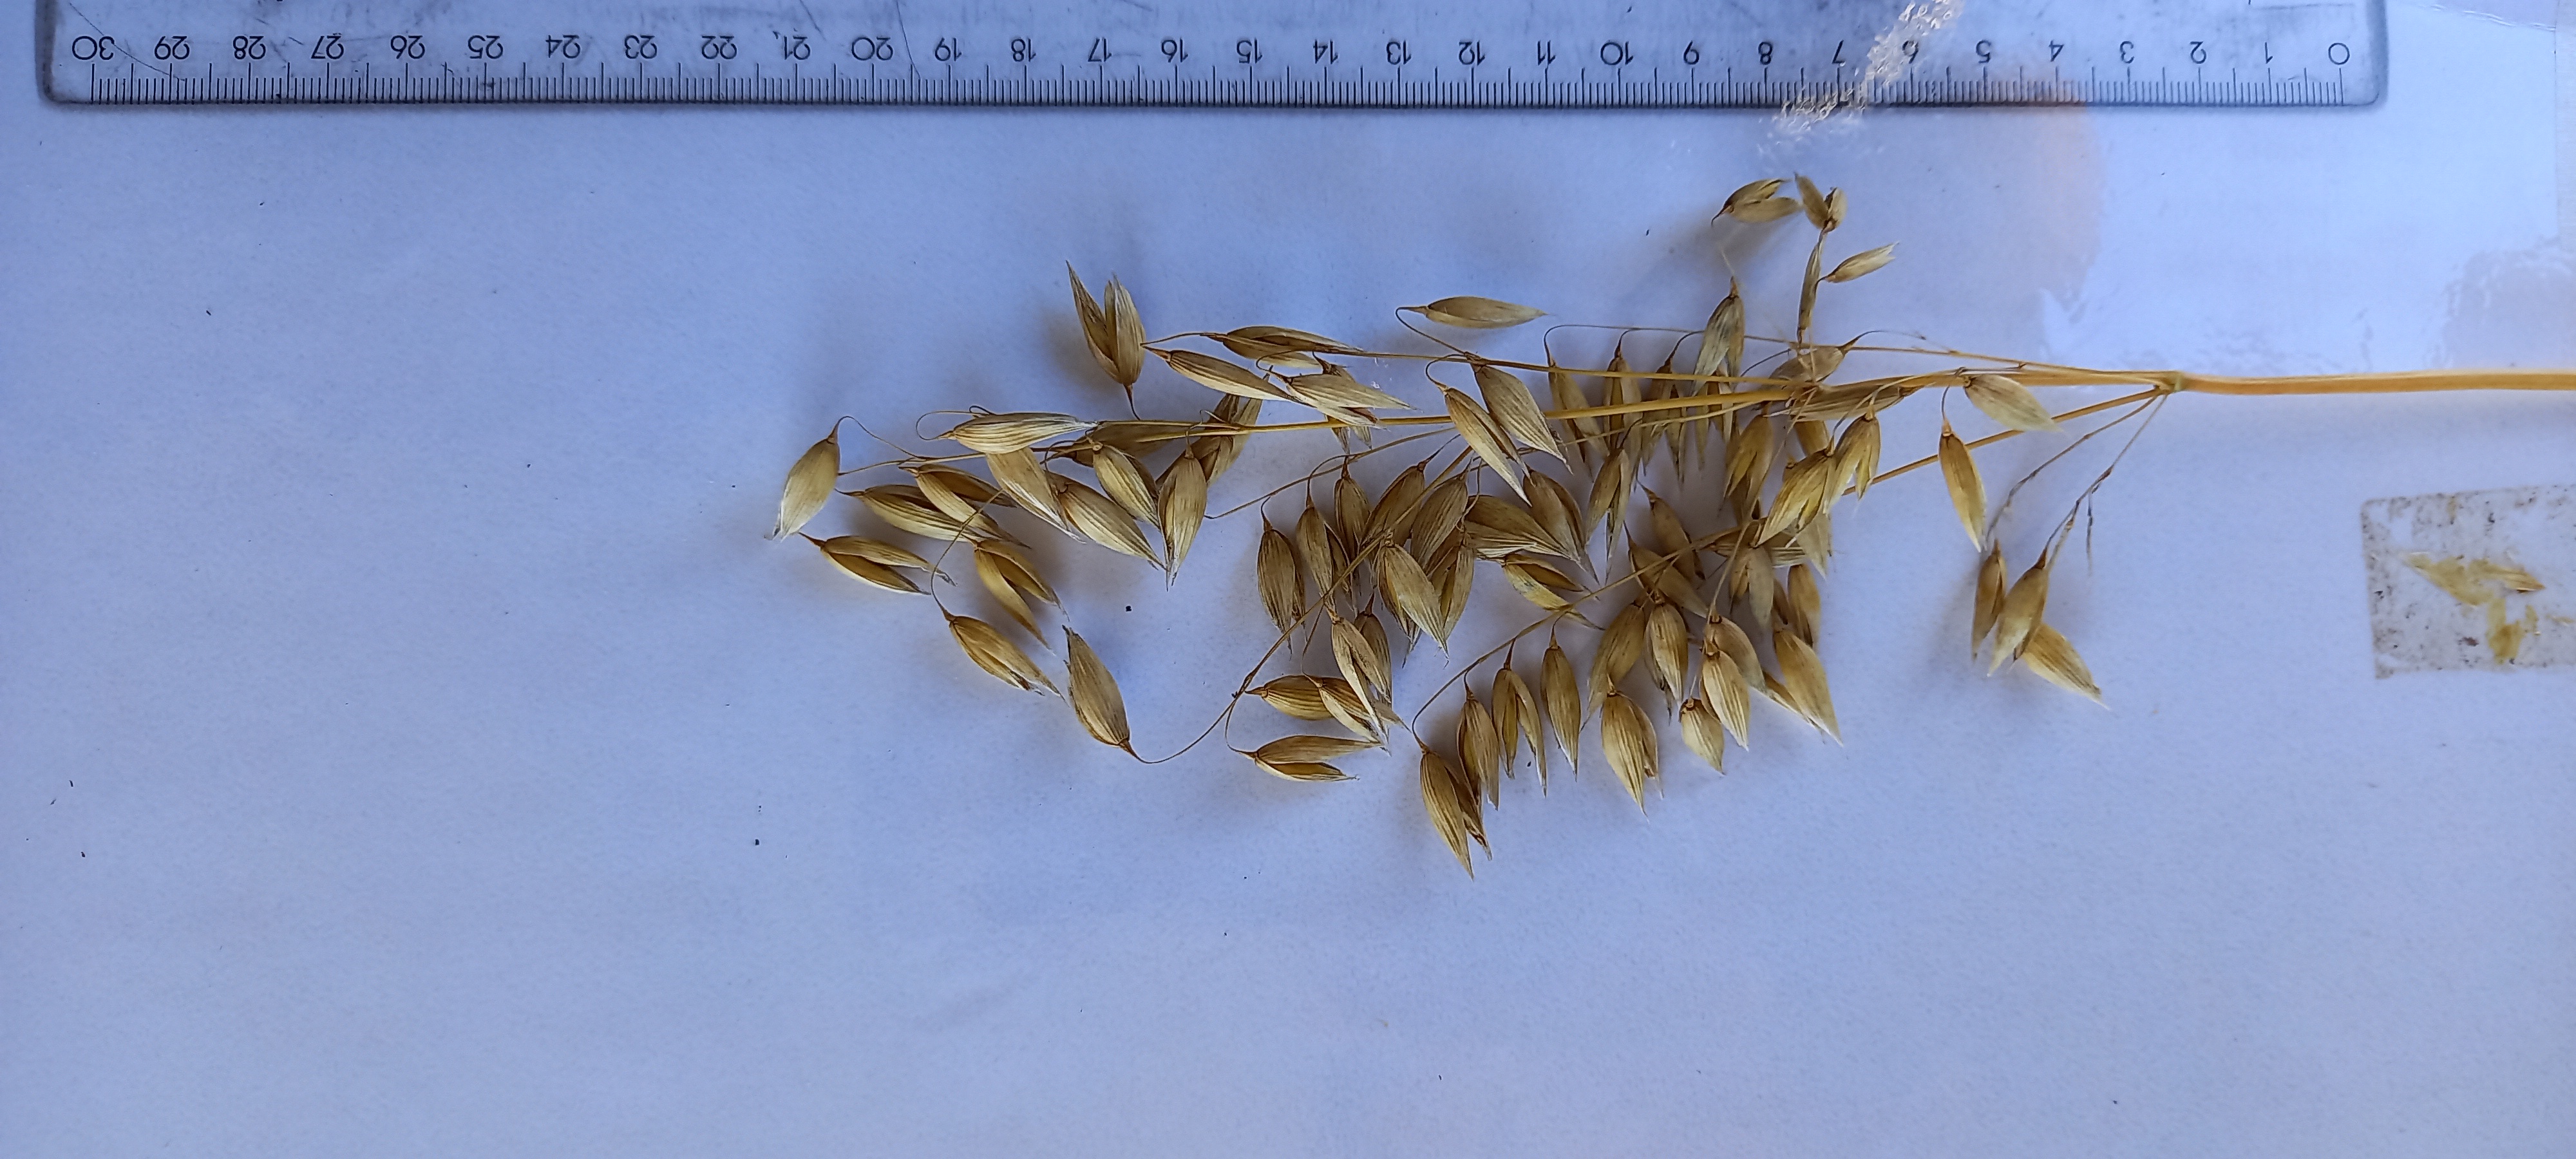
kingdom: Plantae
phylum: Tracheophyta
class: Liliopsida
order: Poales
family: Poaceae
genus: Avena
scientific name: Avena sativa
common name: Oat
